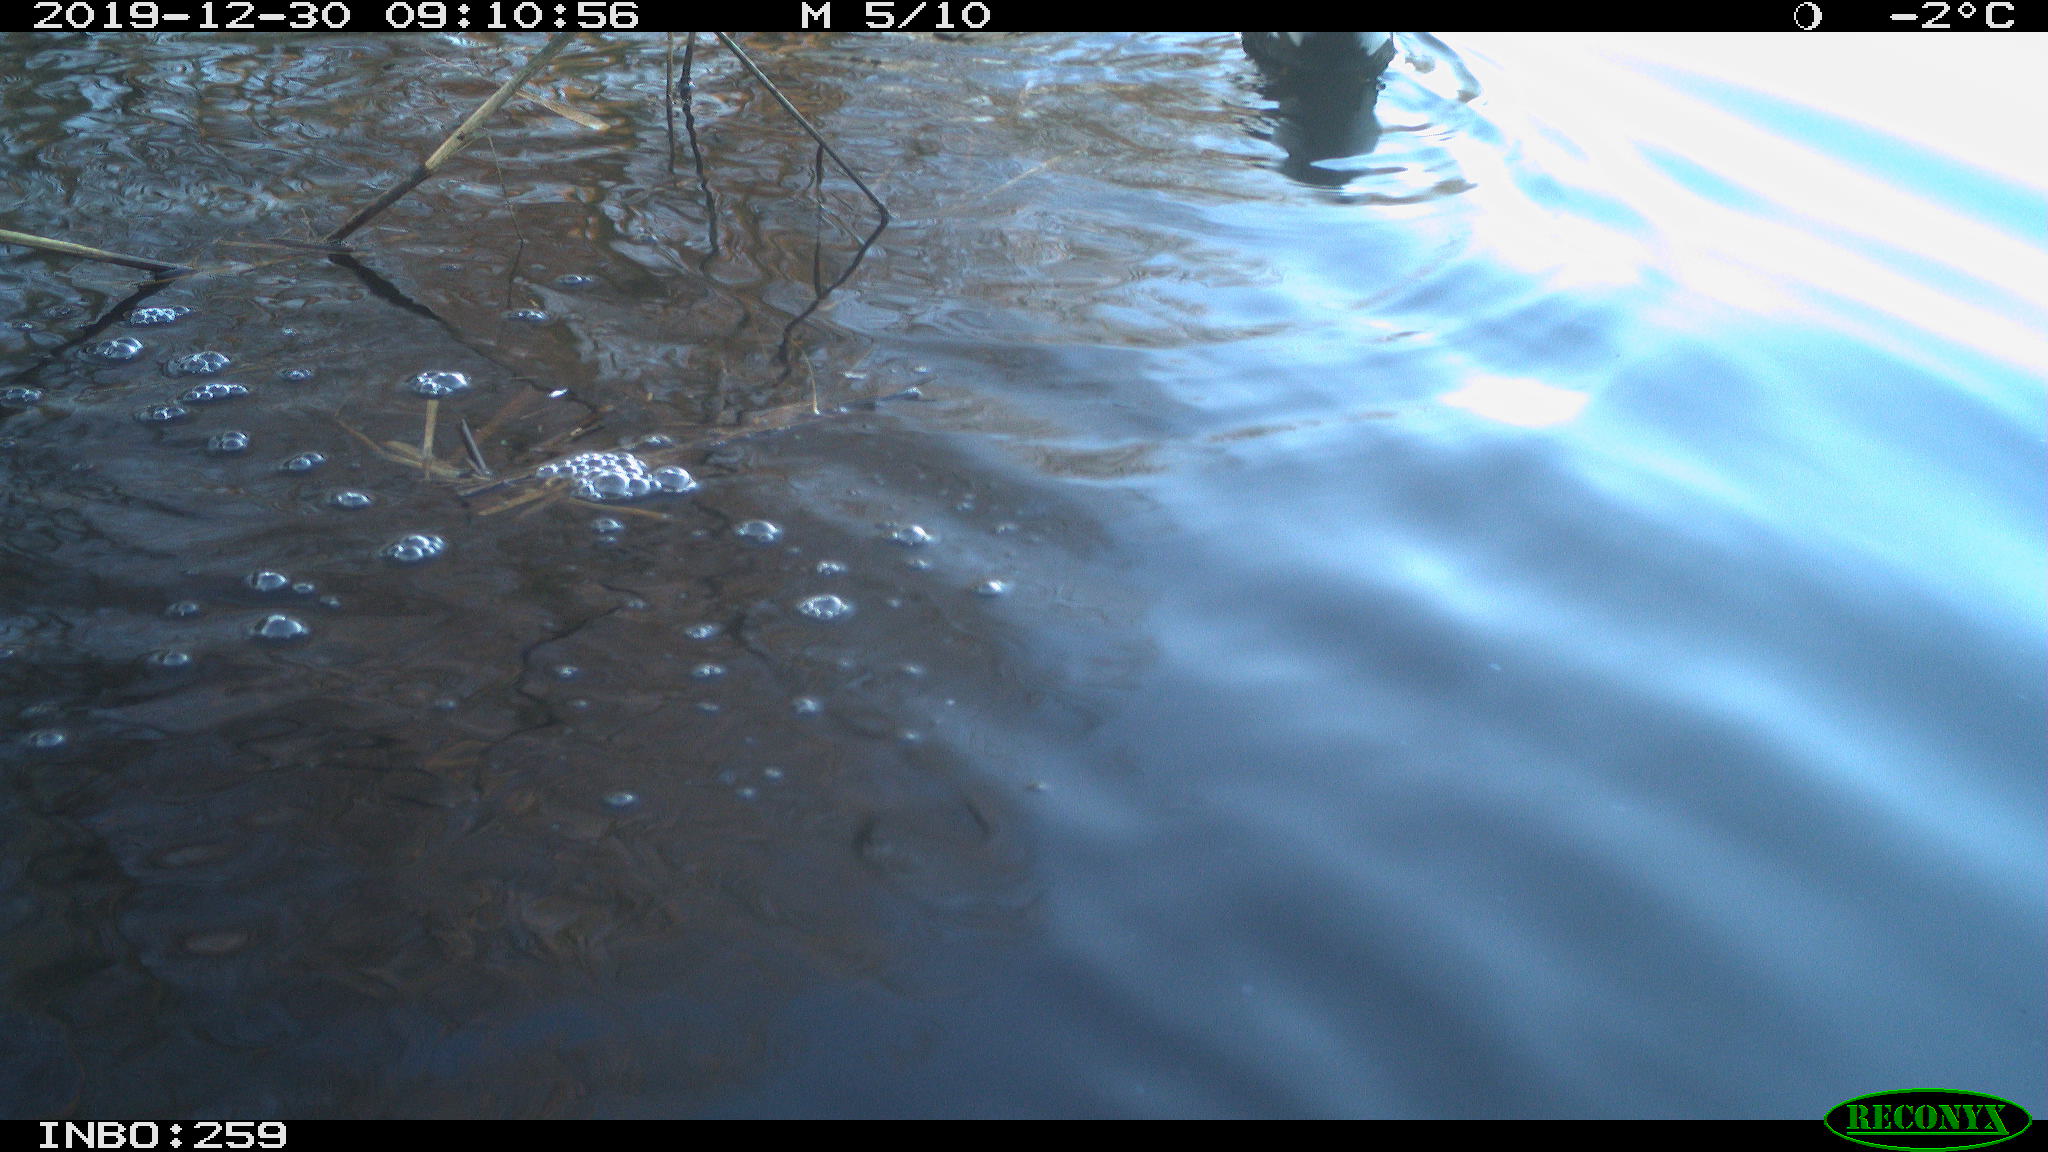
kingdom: Animalia
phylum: Chordata
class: Aves
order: Gruiformes
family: Rallidae
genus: Gallinula
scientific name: Gallinula chloropus
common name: Common moorhen
